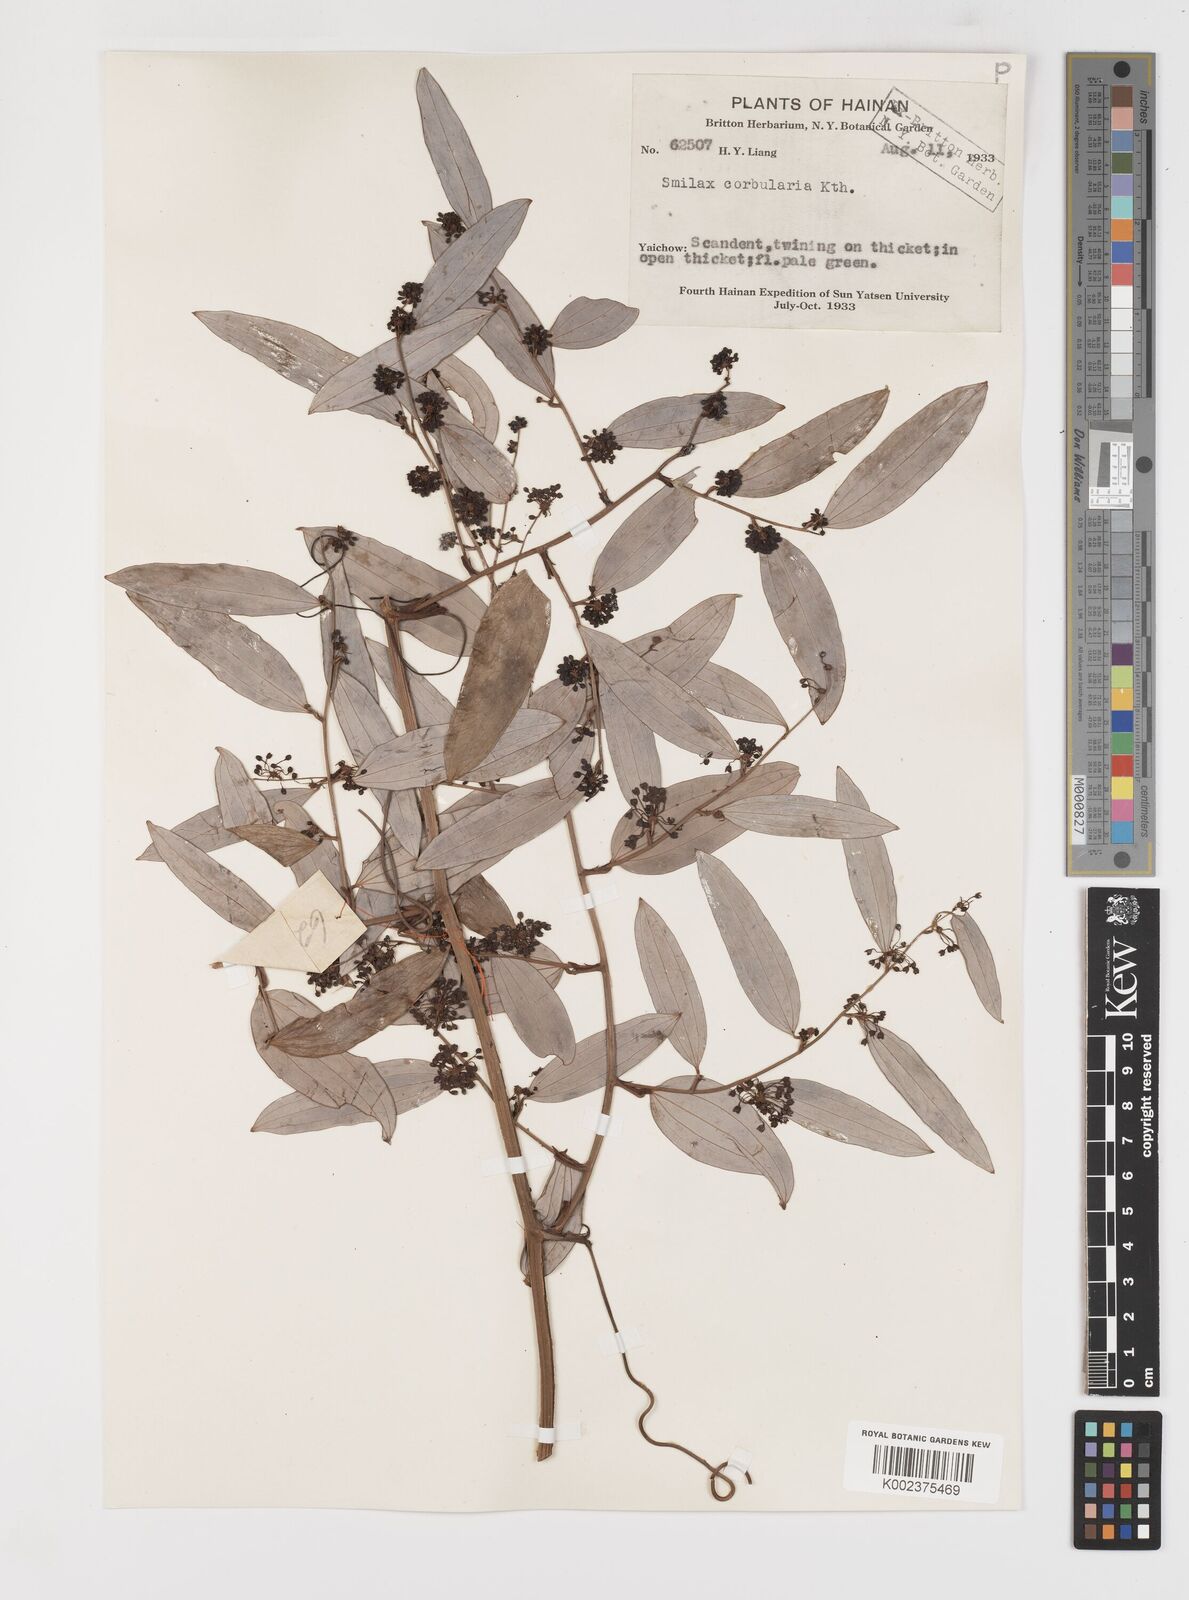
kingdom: Plantae
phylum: Tracheophyta
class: Liliopsida
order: Liliales
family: Smilacaceae
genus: Smilax
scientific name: Smilax hypoglauca
